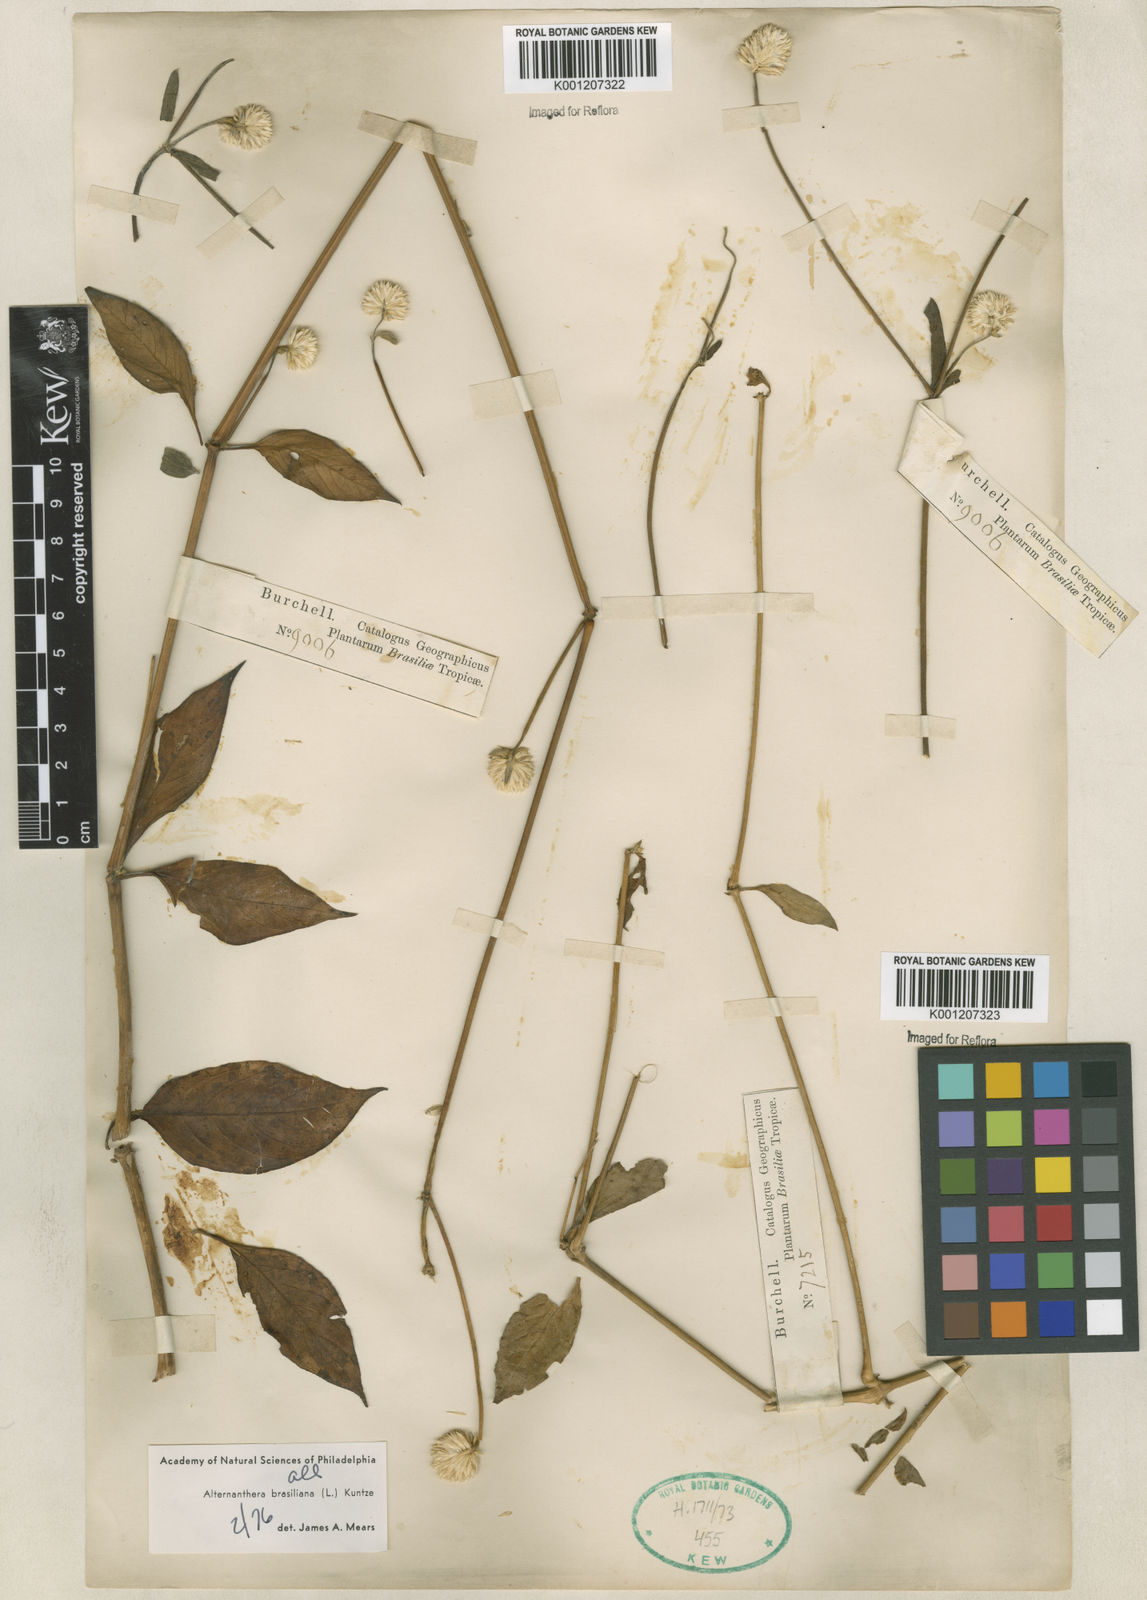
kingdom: Plantae
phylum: Tracheophyta
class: Magnoliopsida
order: Caryophyllales
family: Amaranthaceae
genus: Alternanthera
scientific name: Alternanthera brasiliana
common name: Brazilian joyweed
